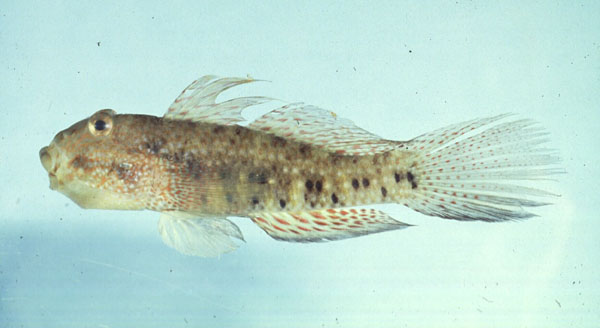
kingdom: Animalia
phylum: Chordata
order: Perciformes
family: Gobiidae
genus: Exyrias
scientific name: Exyrias belissimus
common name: Mud reef-goby
